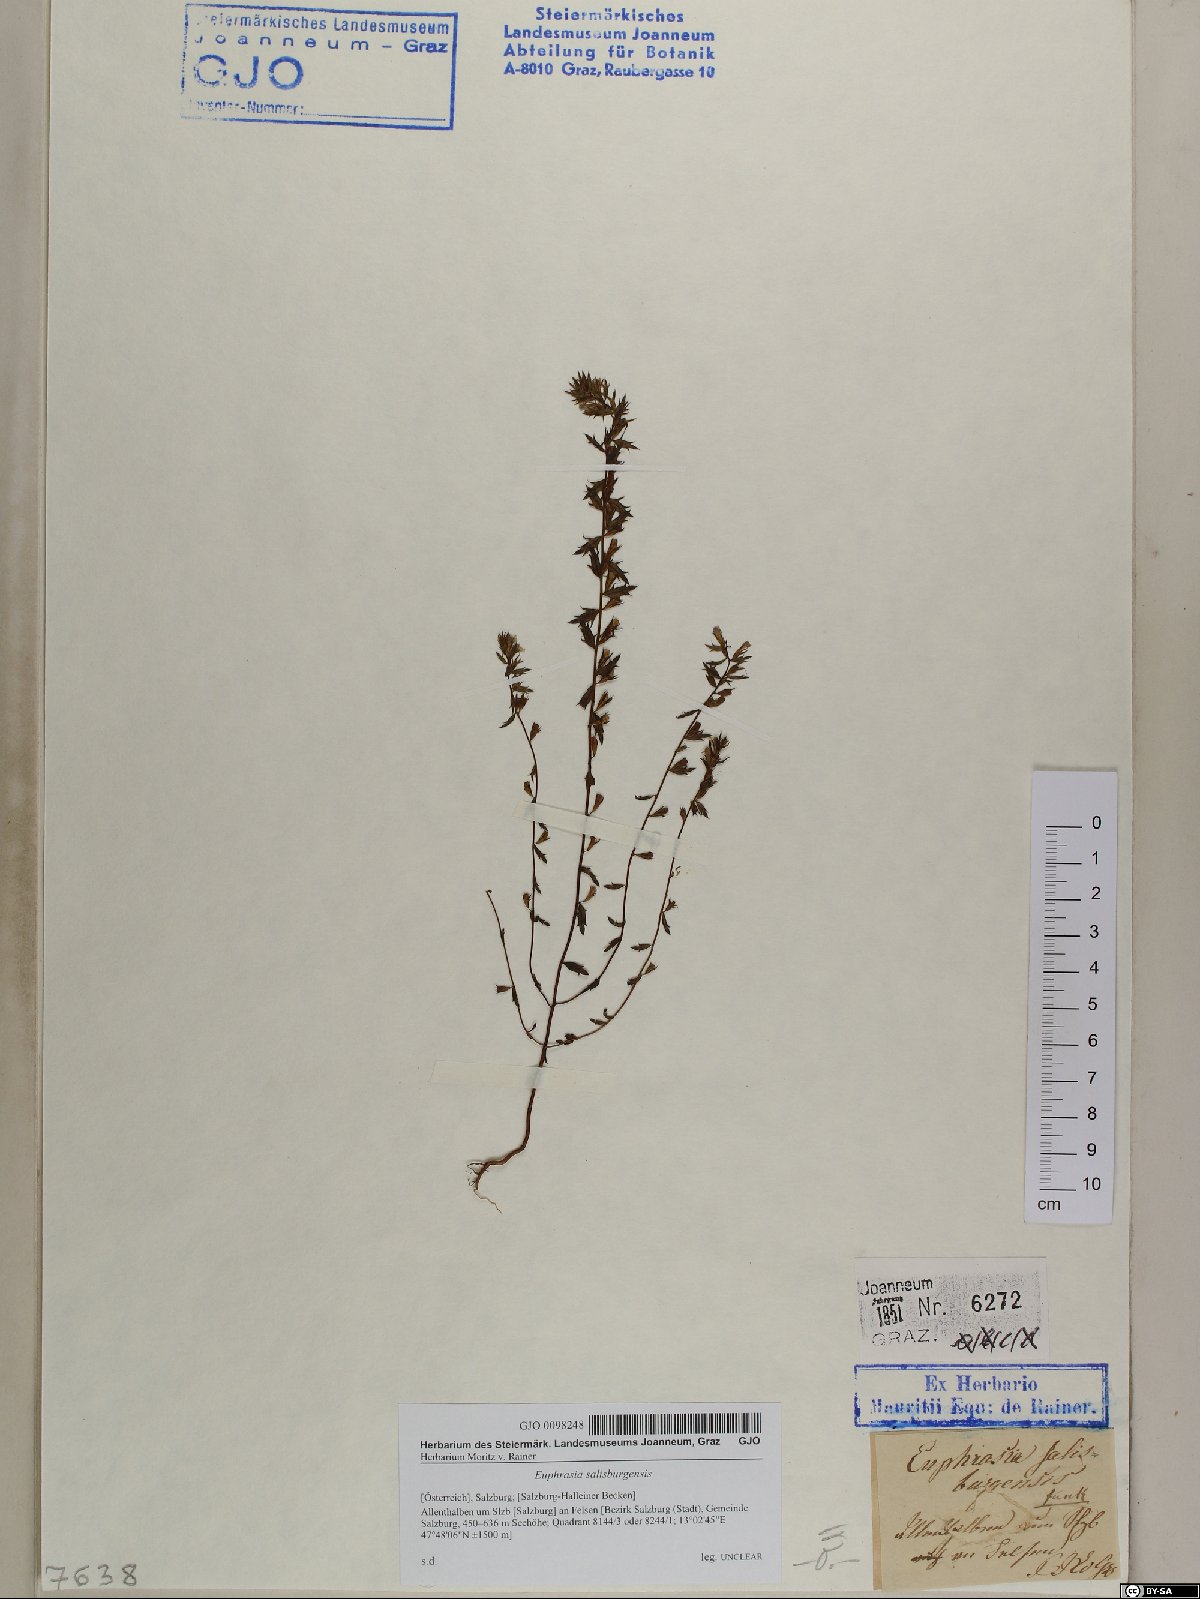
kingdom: Plantae
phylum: Tracheophyta
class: Magnoliopsida
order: Lamiales
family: Orobanchaceae
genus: Euphrasia
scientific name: Euphrasia salisburgensis
